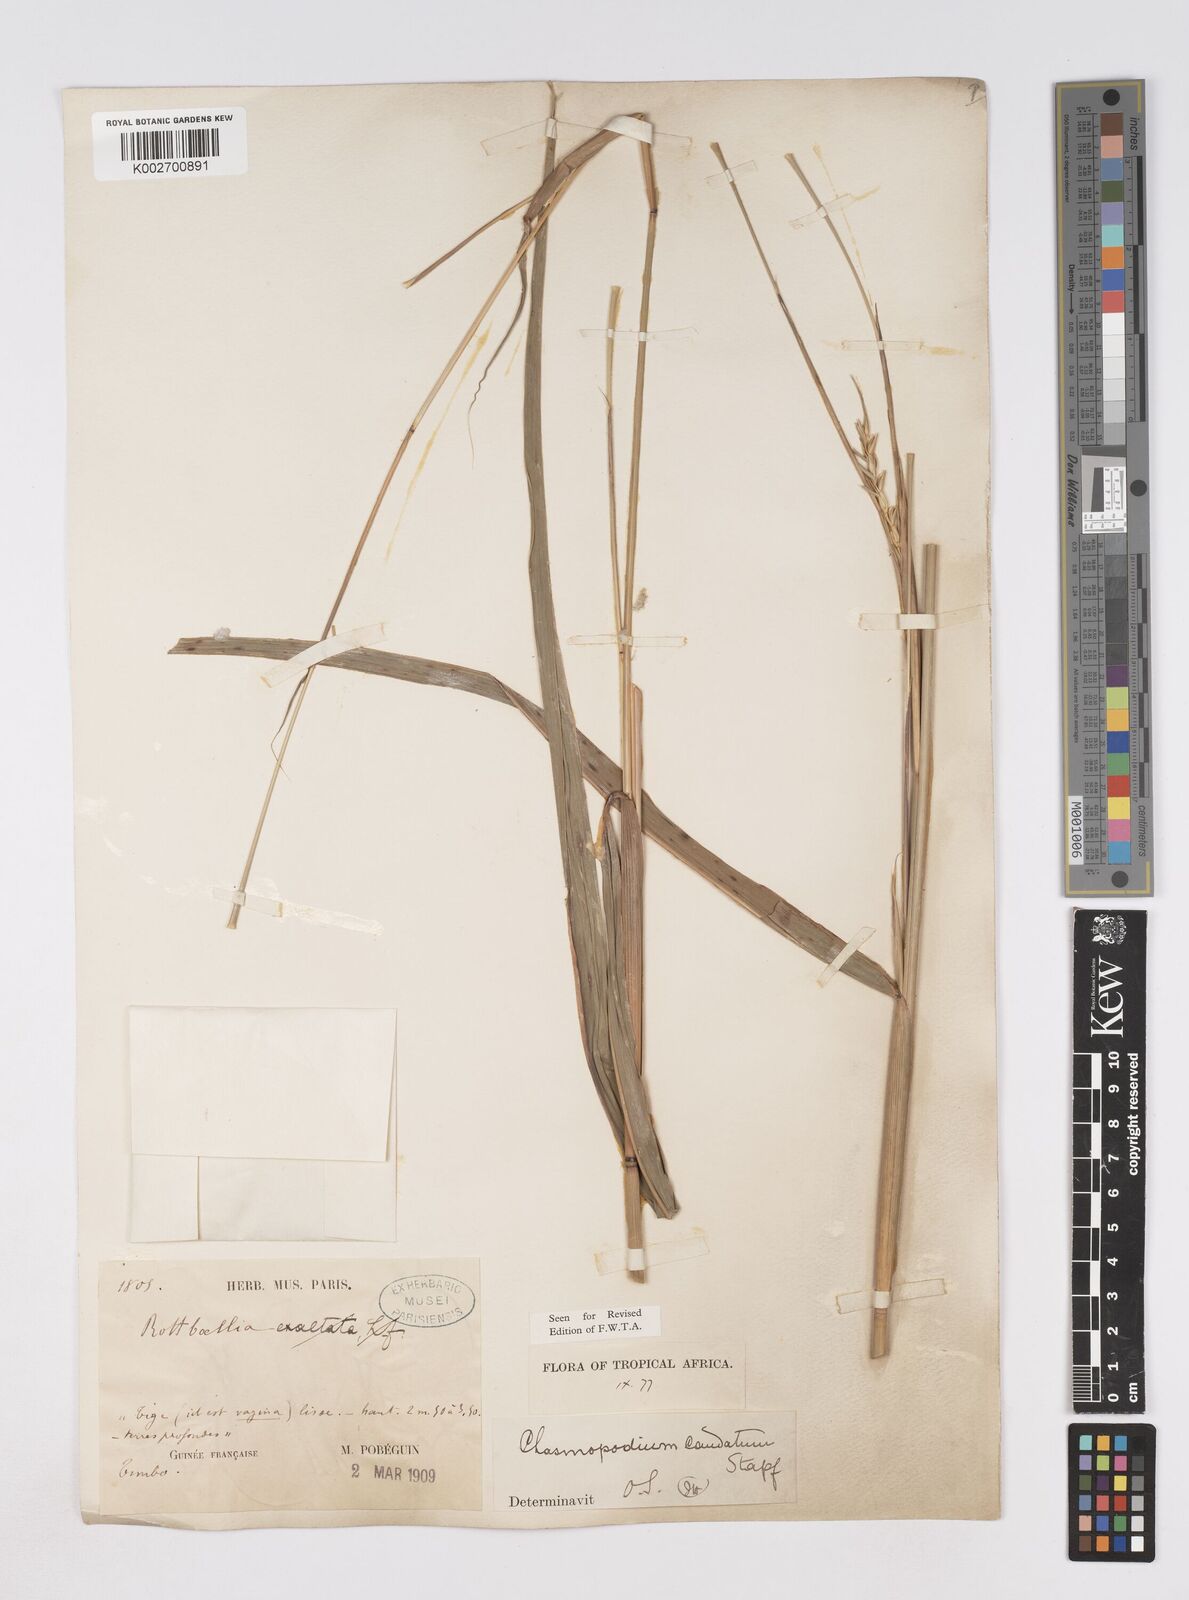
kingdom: Plantae
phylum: Tracheophyta
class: Liliopsida
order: Poales
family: Poaceae
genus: Chasmopodium
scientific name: Chasmopodium caudatum
